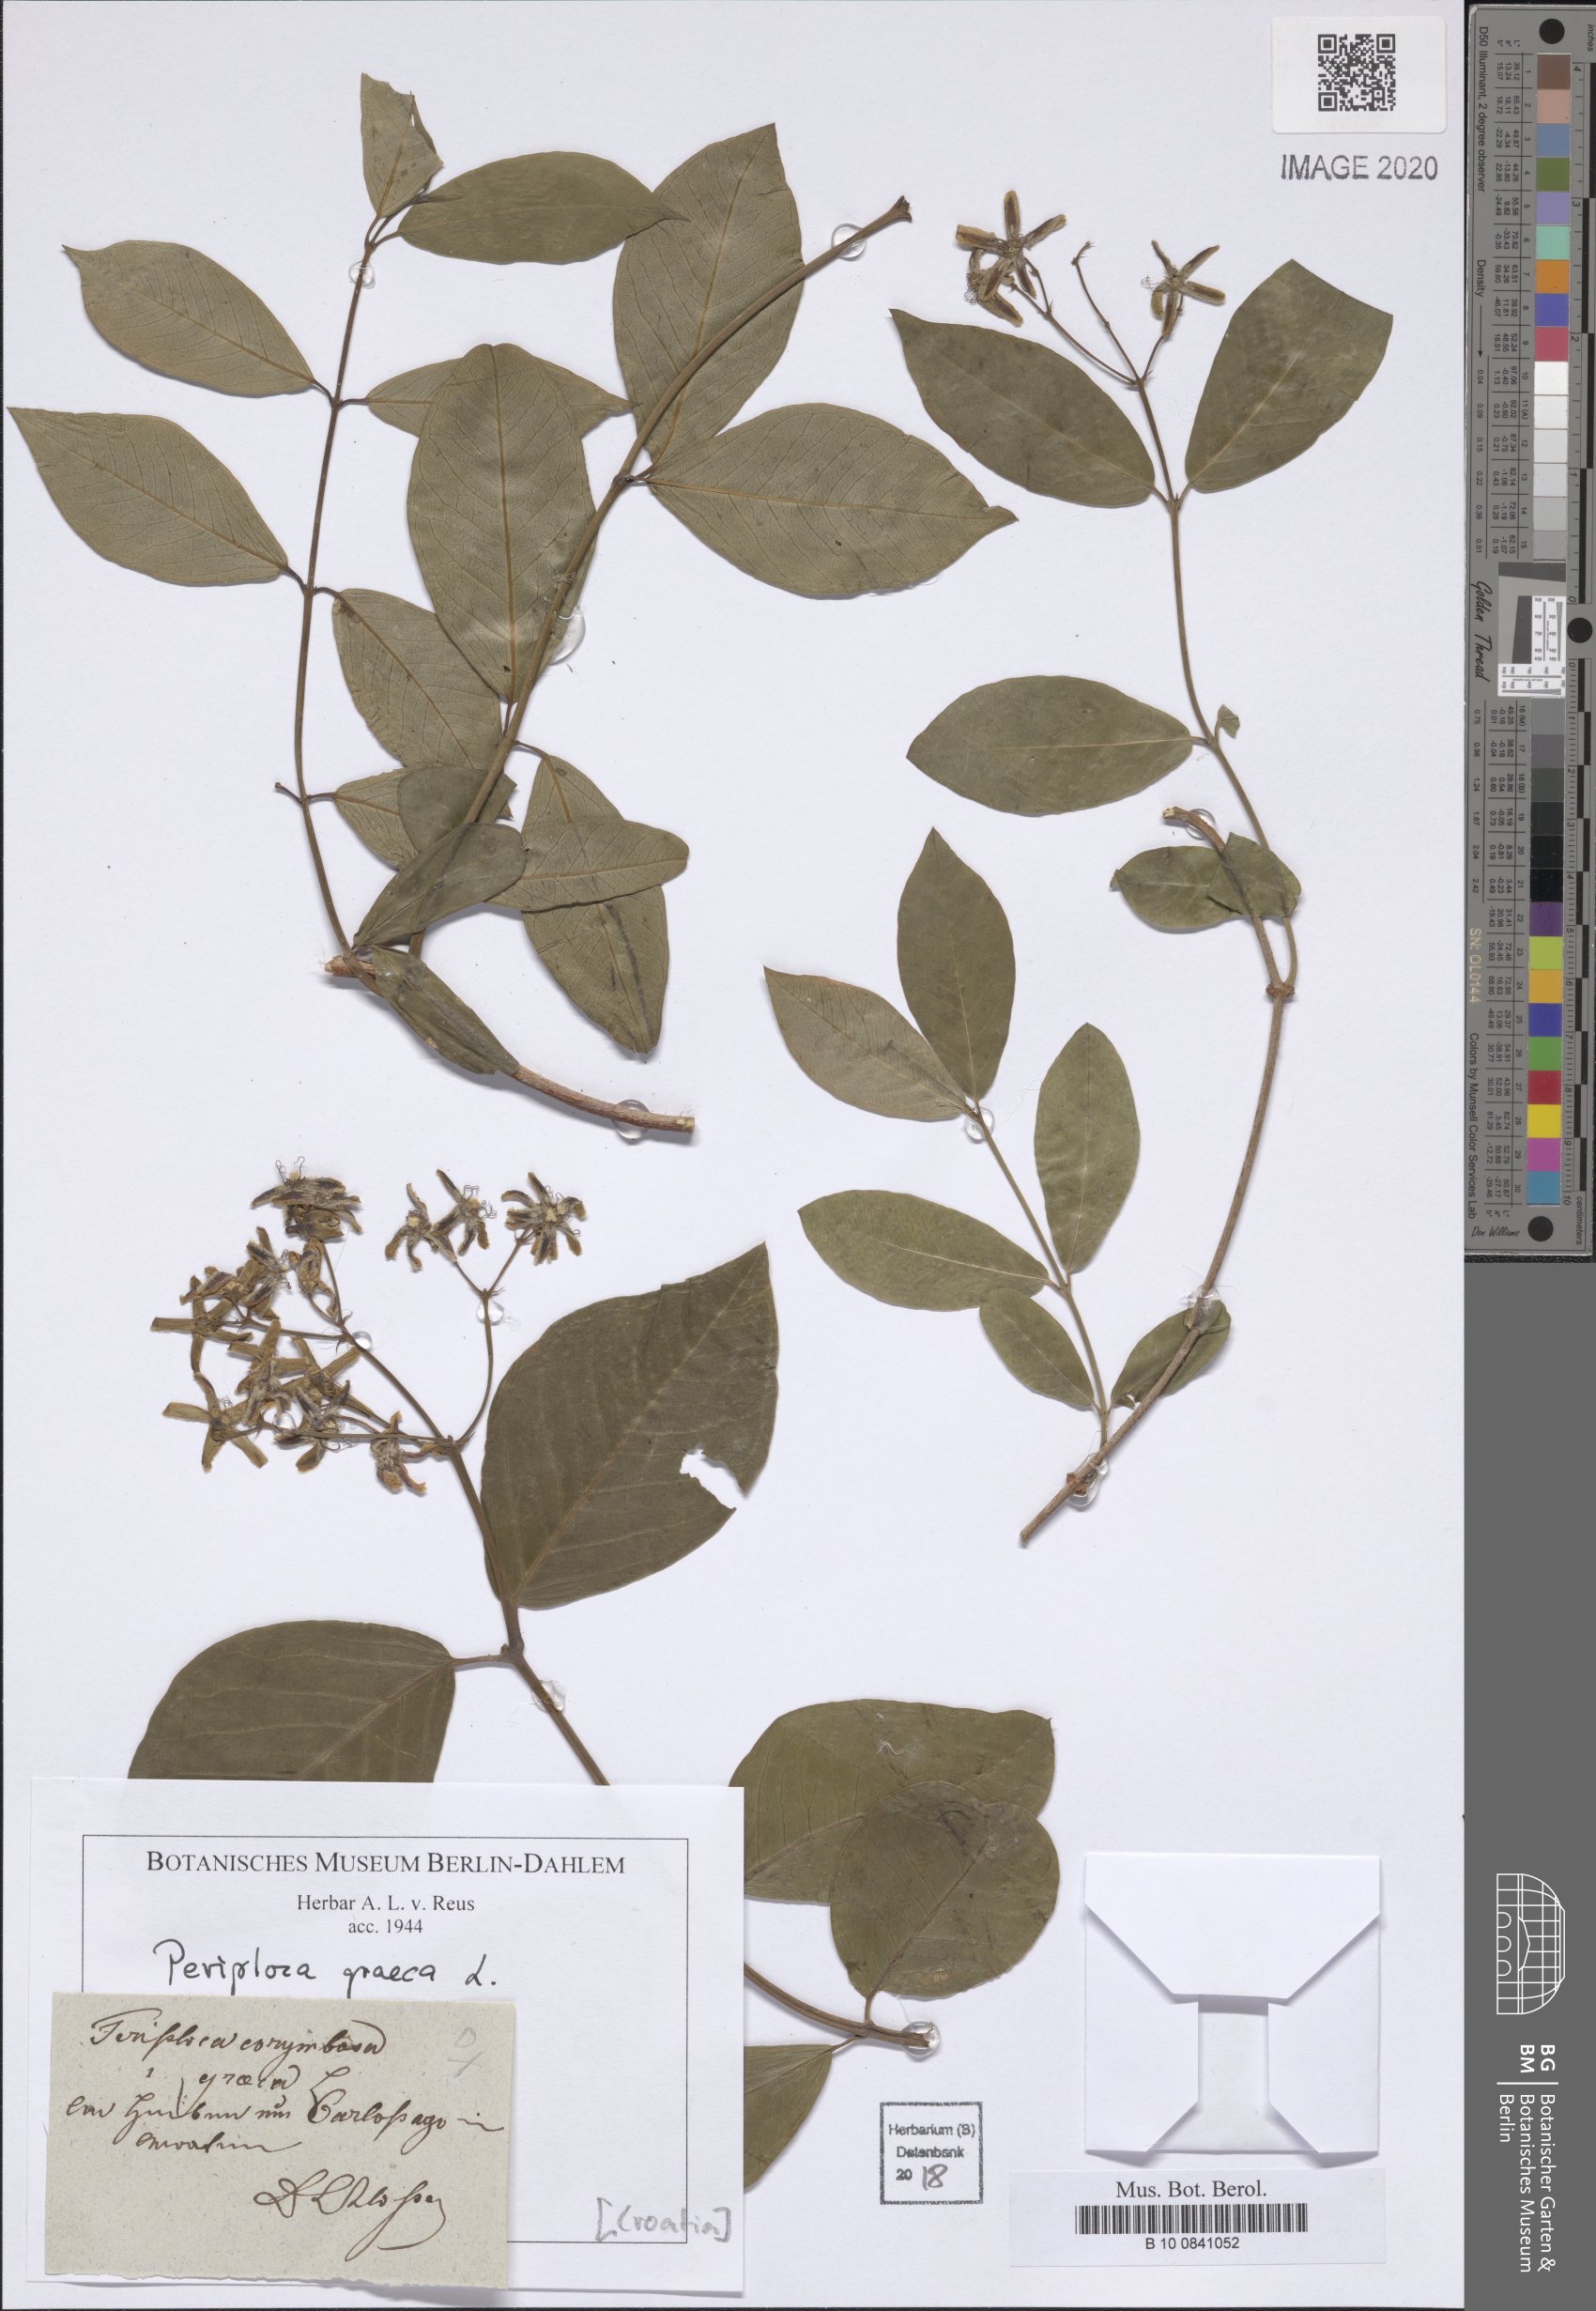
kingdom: Plantae
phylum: Tracheophyta
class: Magnoliopsida
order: Gentianales
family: Apocynaceae
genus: Periploca
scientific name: Periploca graeca
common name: Silkvine
